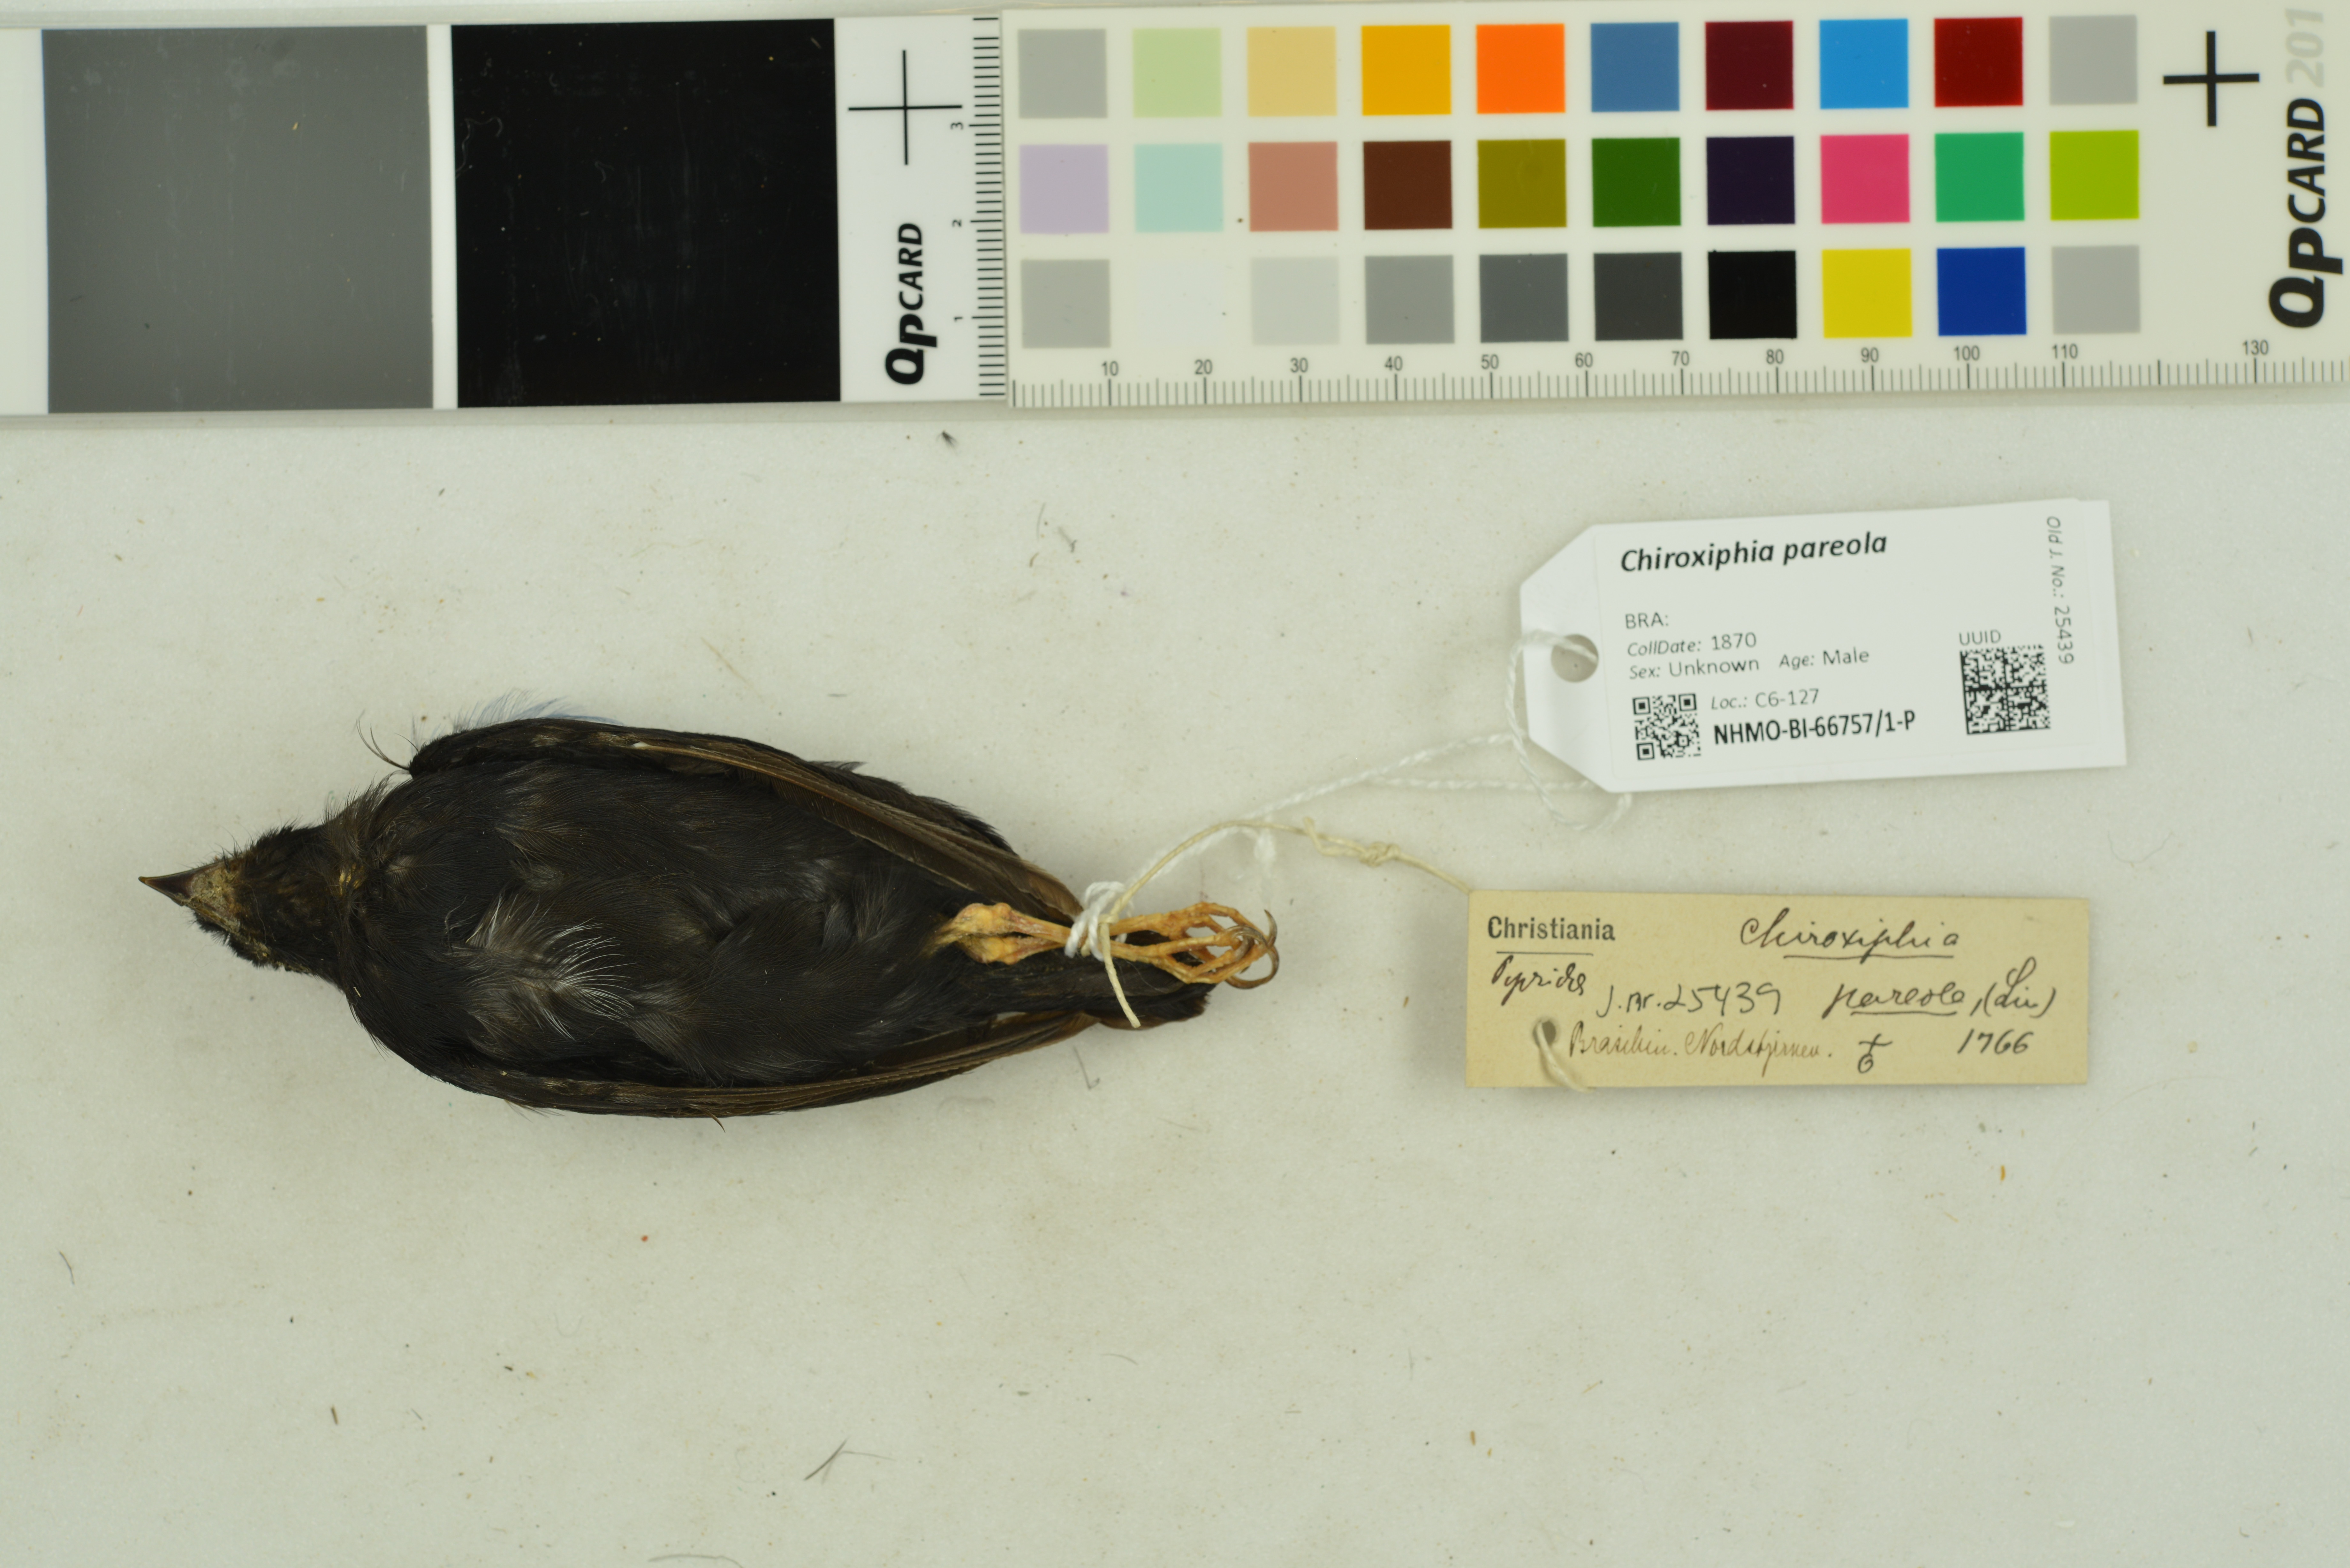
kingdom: Animalia
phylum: Chordata
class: Aves
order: Passeriformes
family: Pipridae
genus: Chiroxiphia
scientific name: Chiroxiphia pareola
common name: Blue-backed manakin
